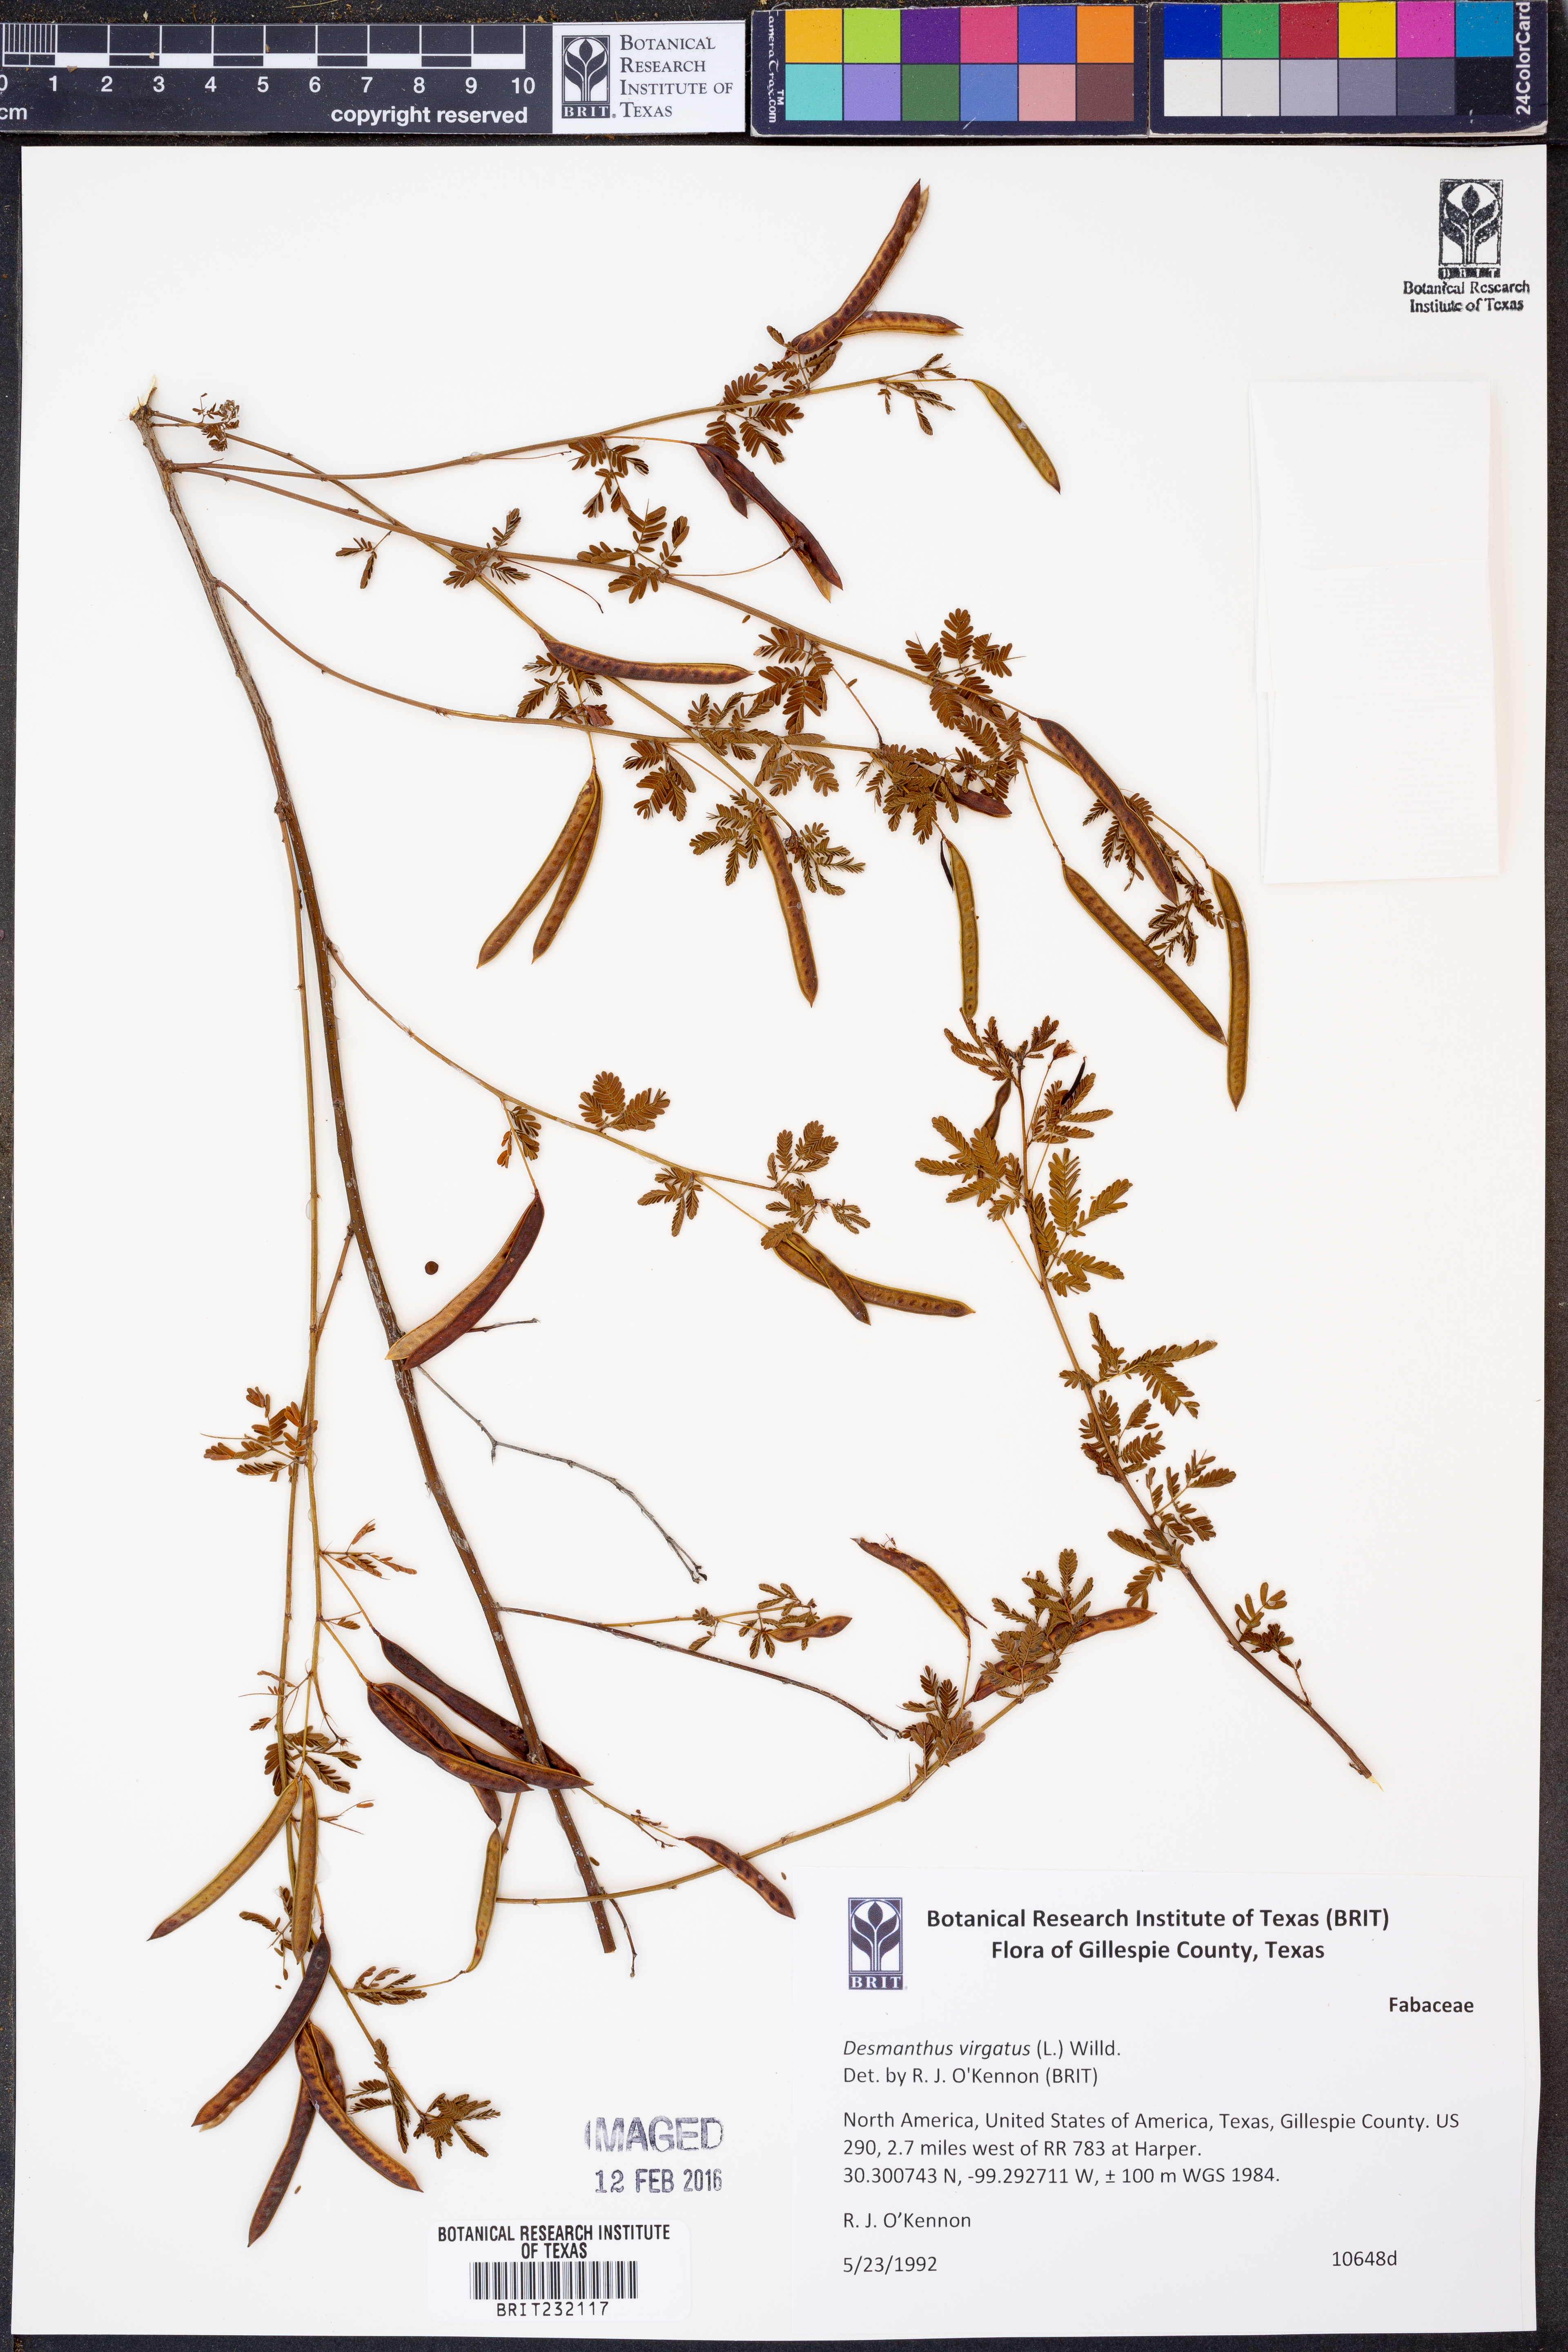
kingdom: Plantae
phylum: Tracheophyta
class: Magnoliopsida
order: Fabales
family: Fabaceae
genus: Desmanthus
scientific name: Desmanthus virgatus
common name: Wild tantan
